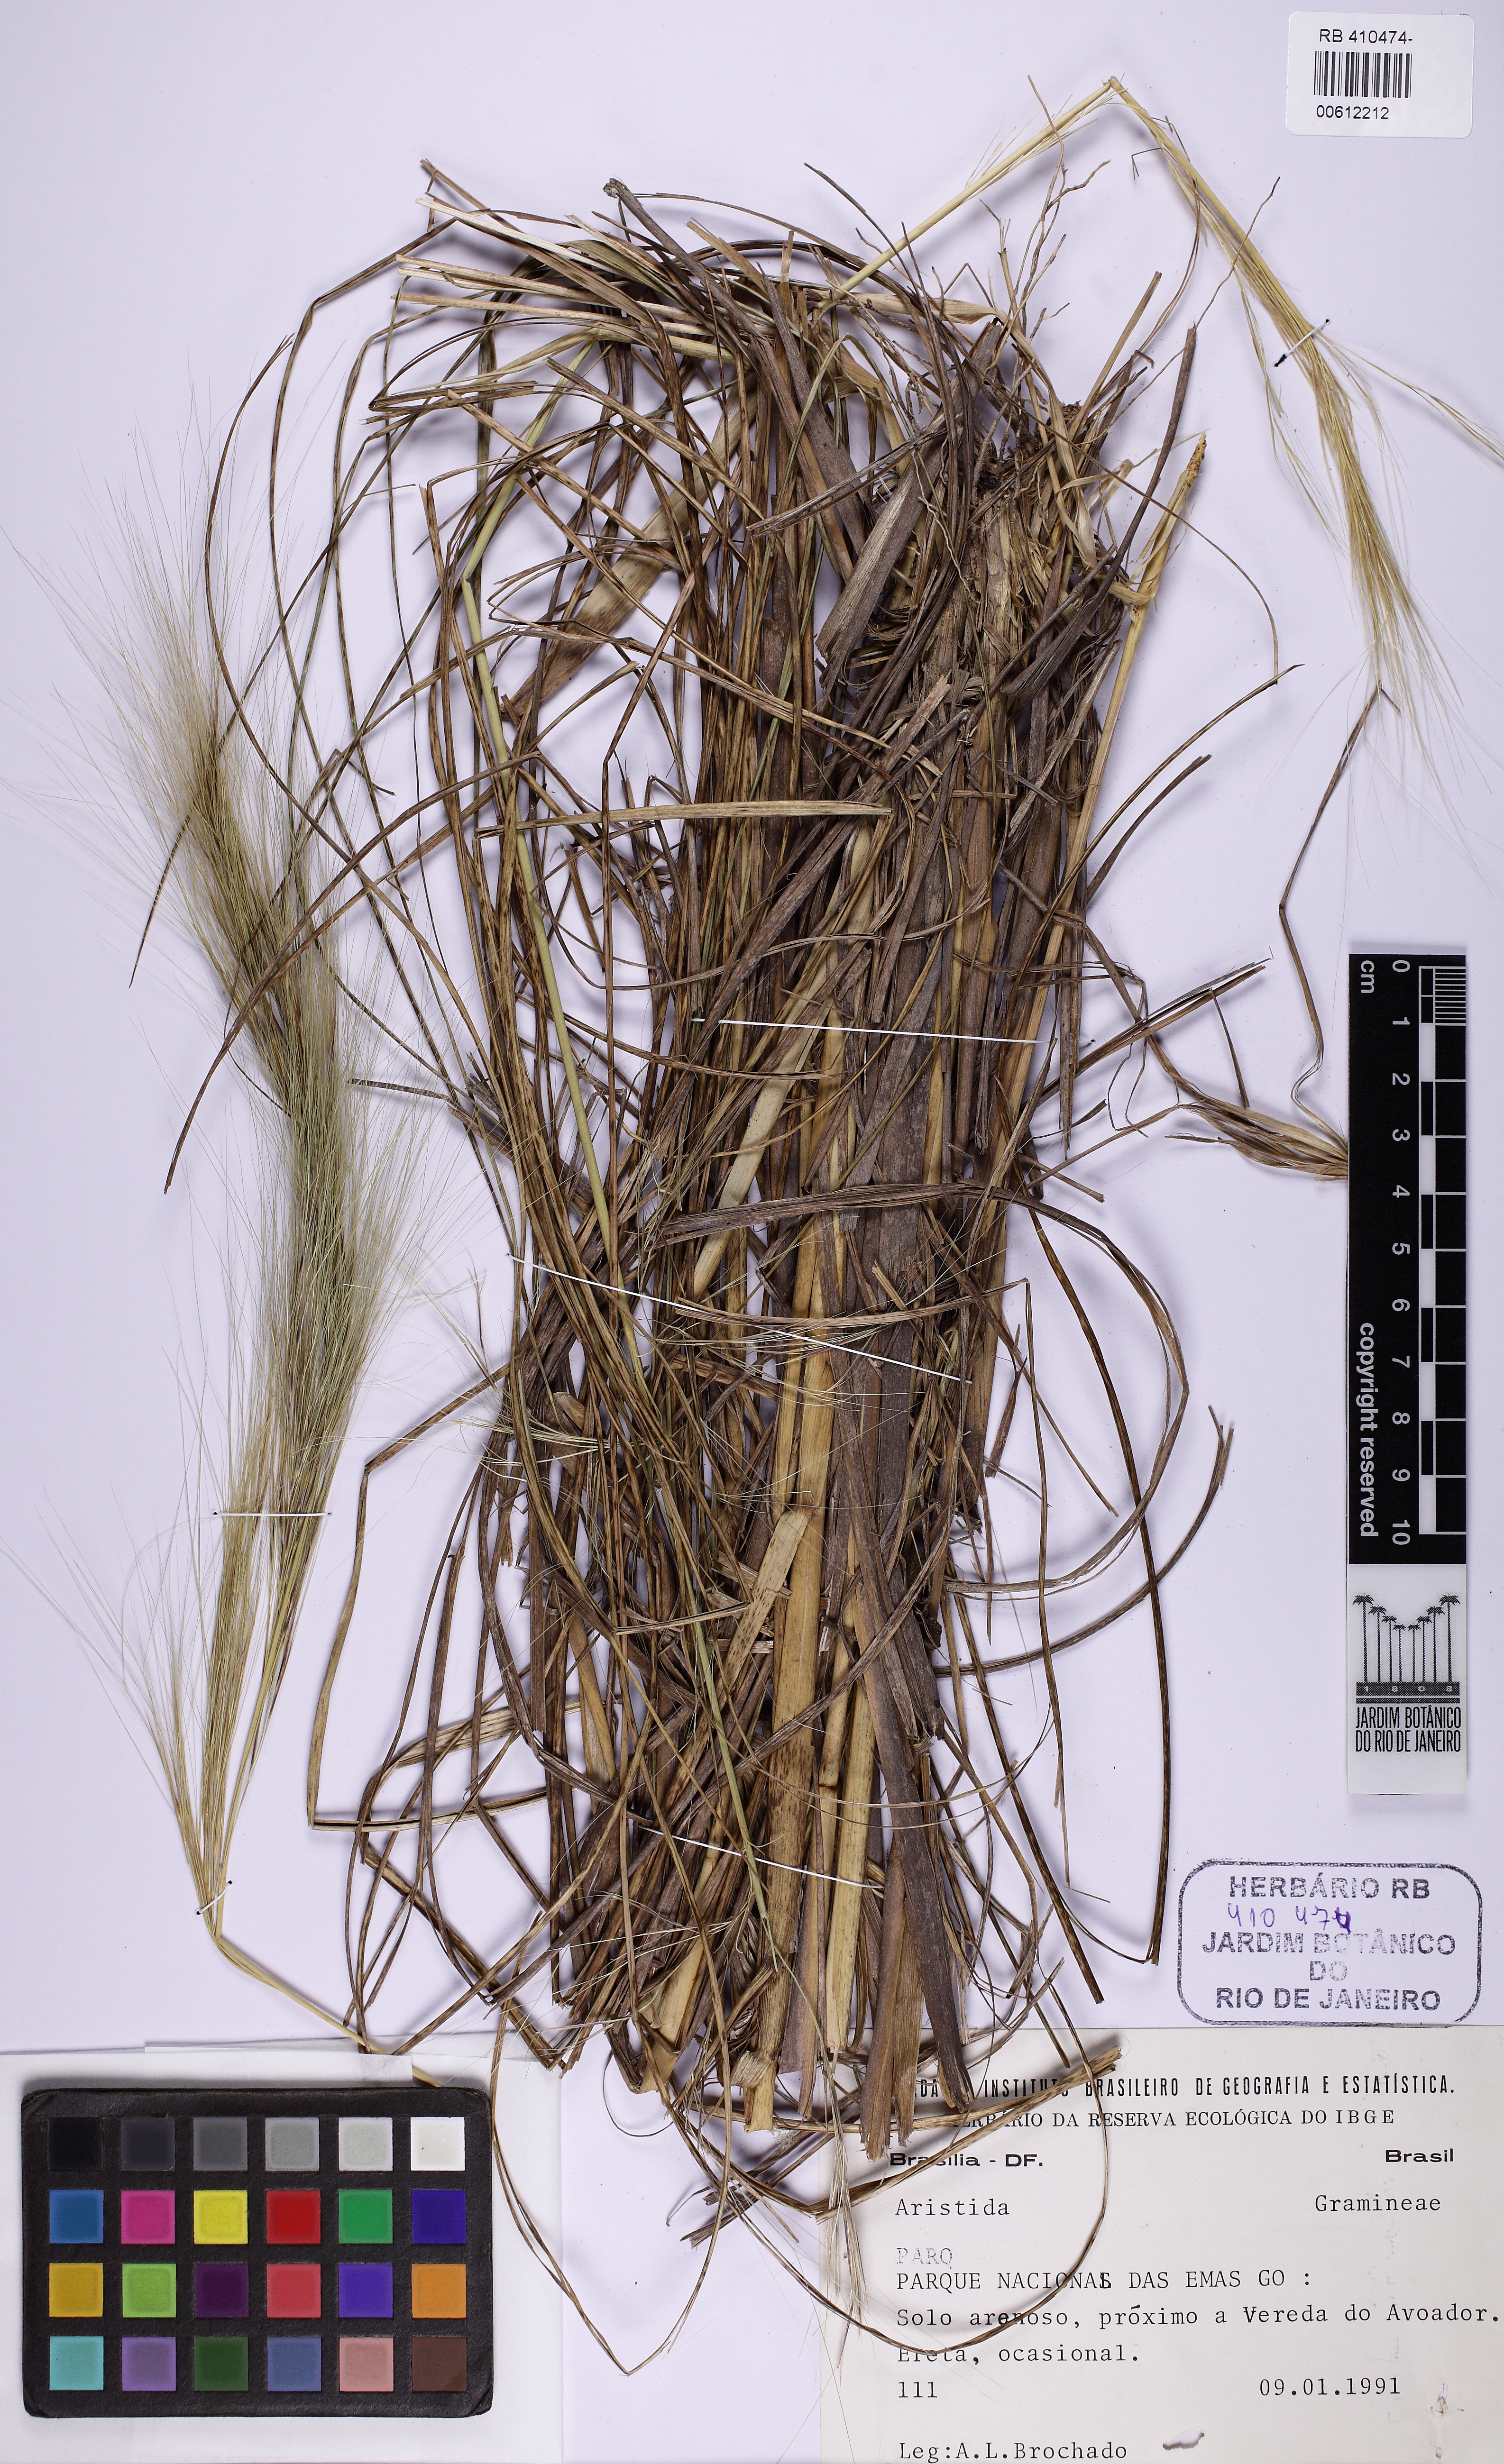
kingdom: Plantae
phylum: Tracheophyta
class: Liliopsida
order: Poales
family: Poaceae
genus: Aristida
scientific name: Aristida
